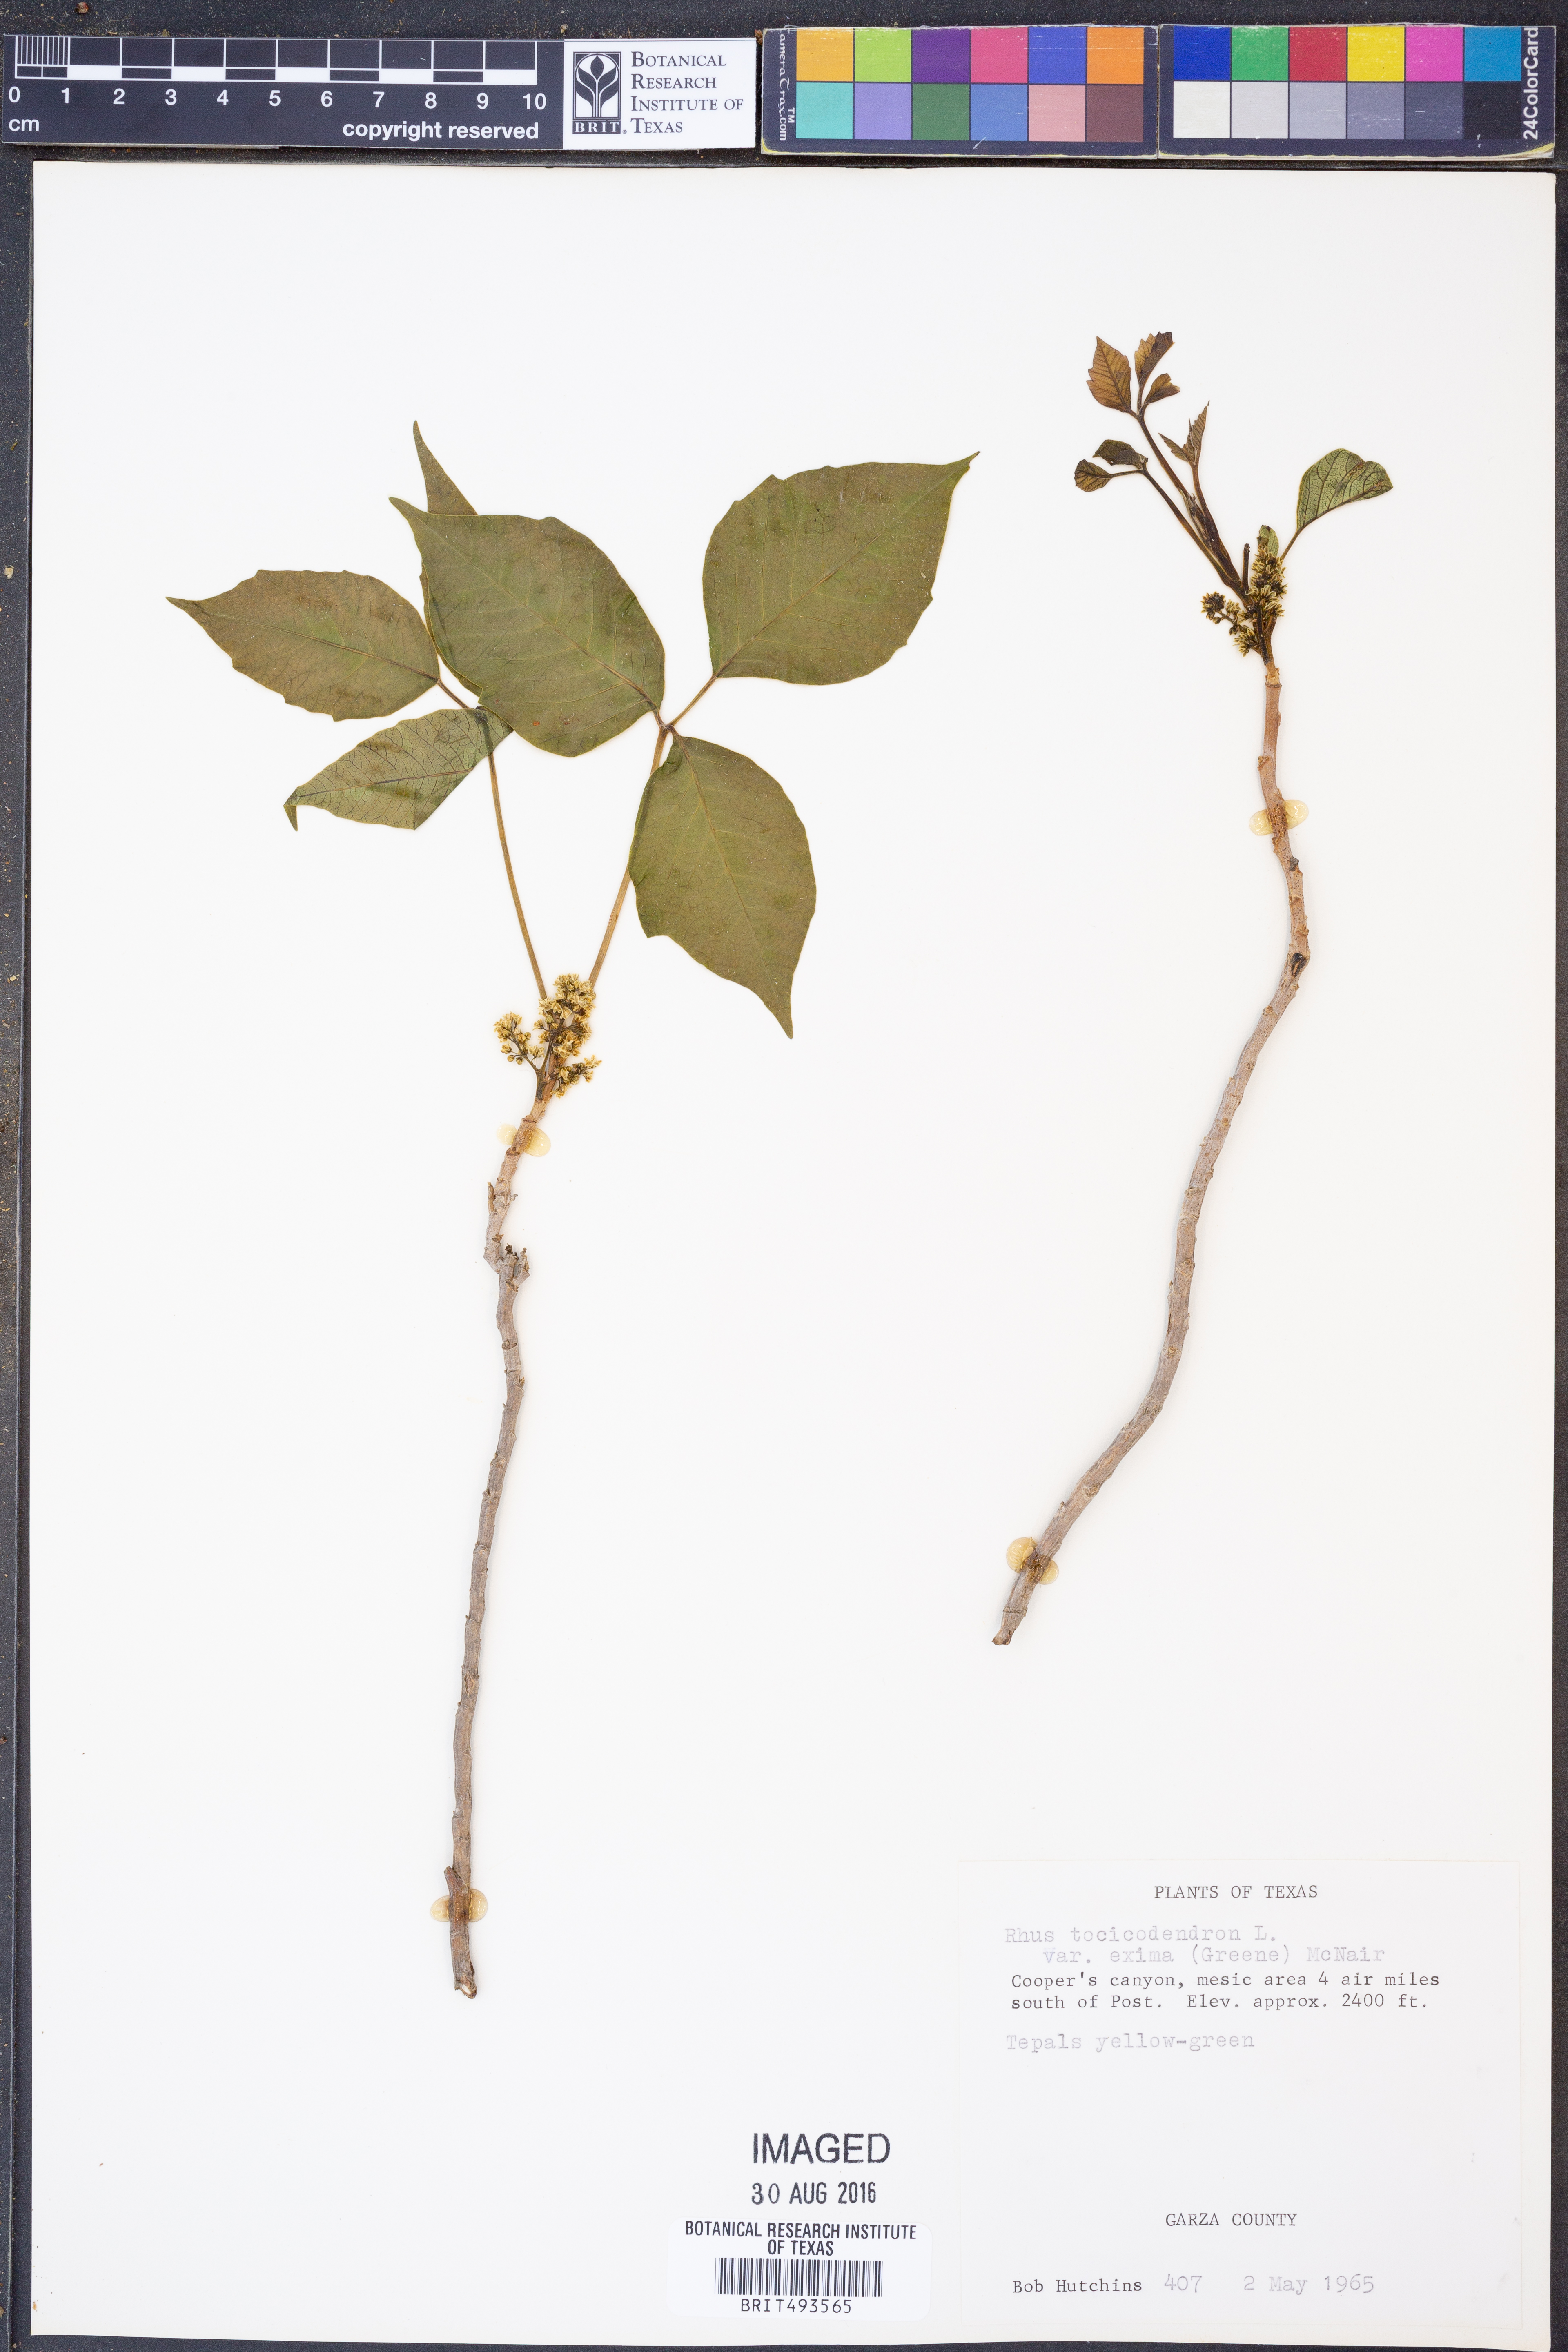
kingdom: Plantae
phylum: Tracheophyta
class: Magnoliopsida
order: Sapindales
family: Anacardiaceae
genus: Toxicodendron
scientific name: Toxicodendron radicans
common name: Poison ivy
